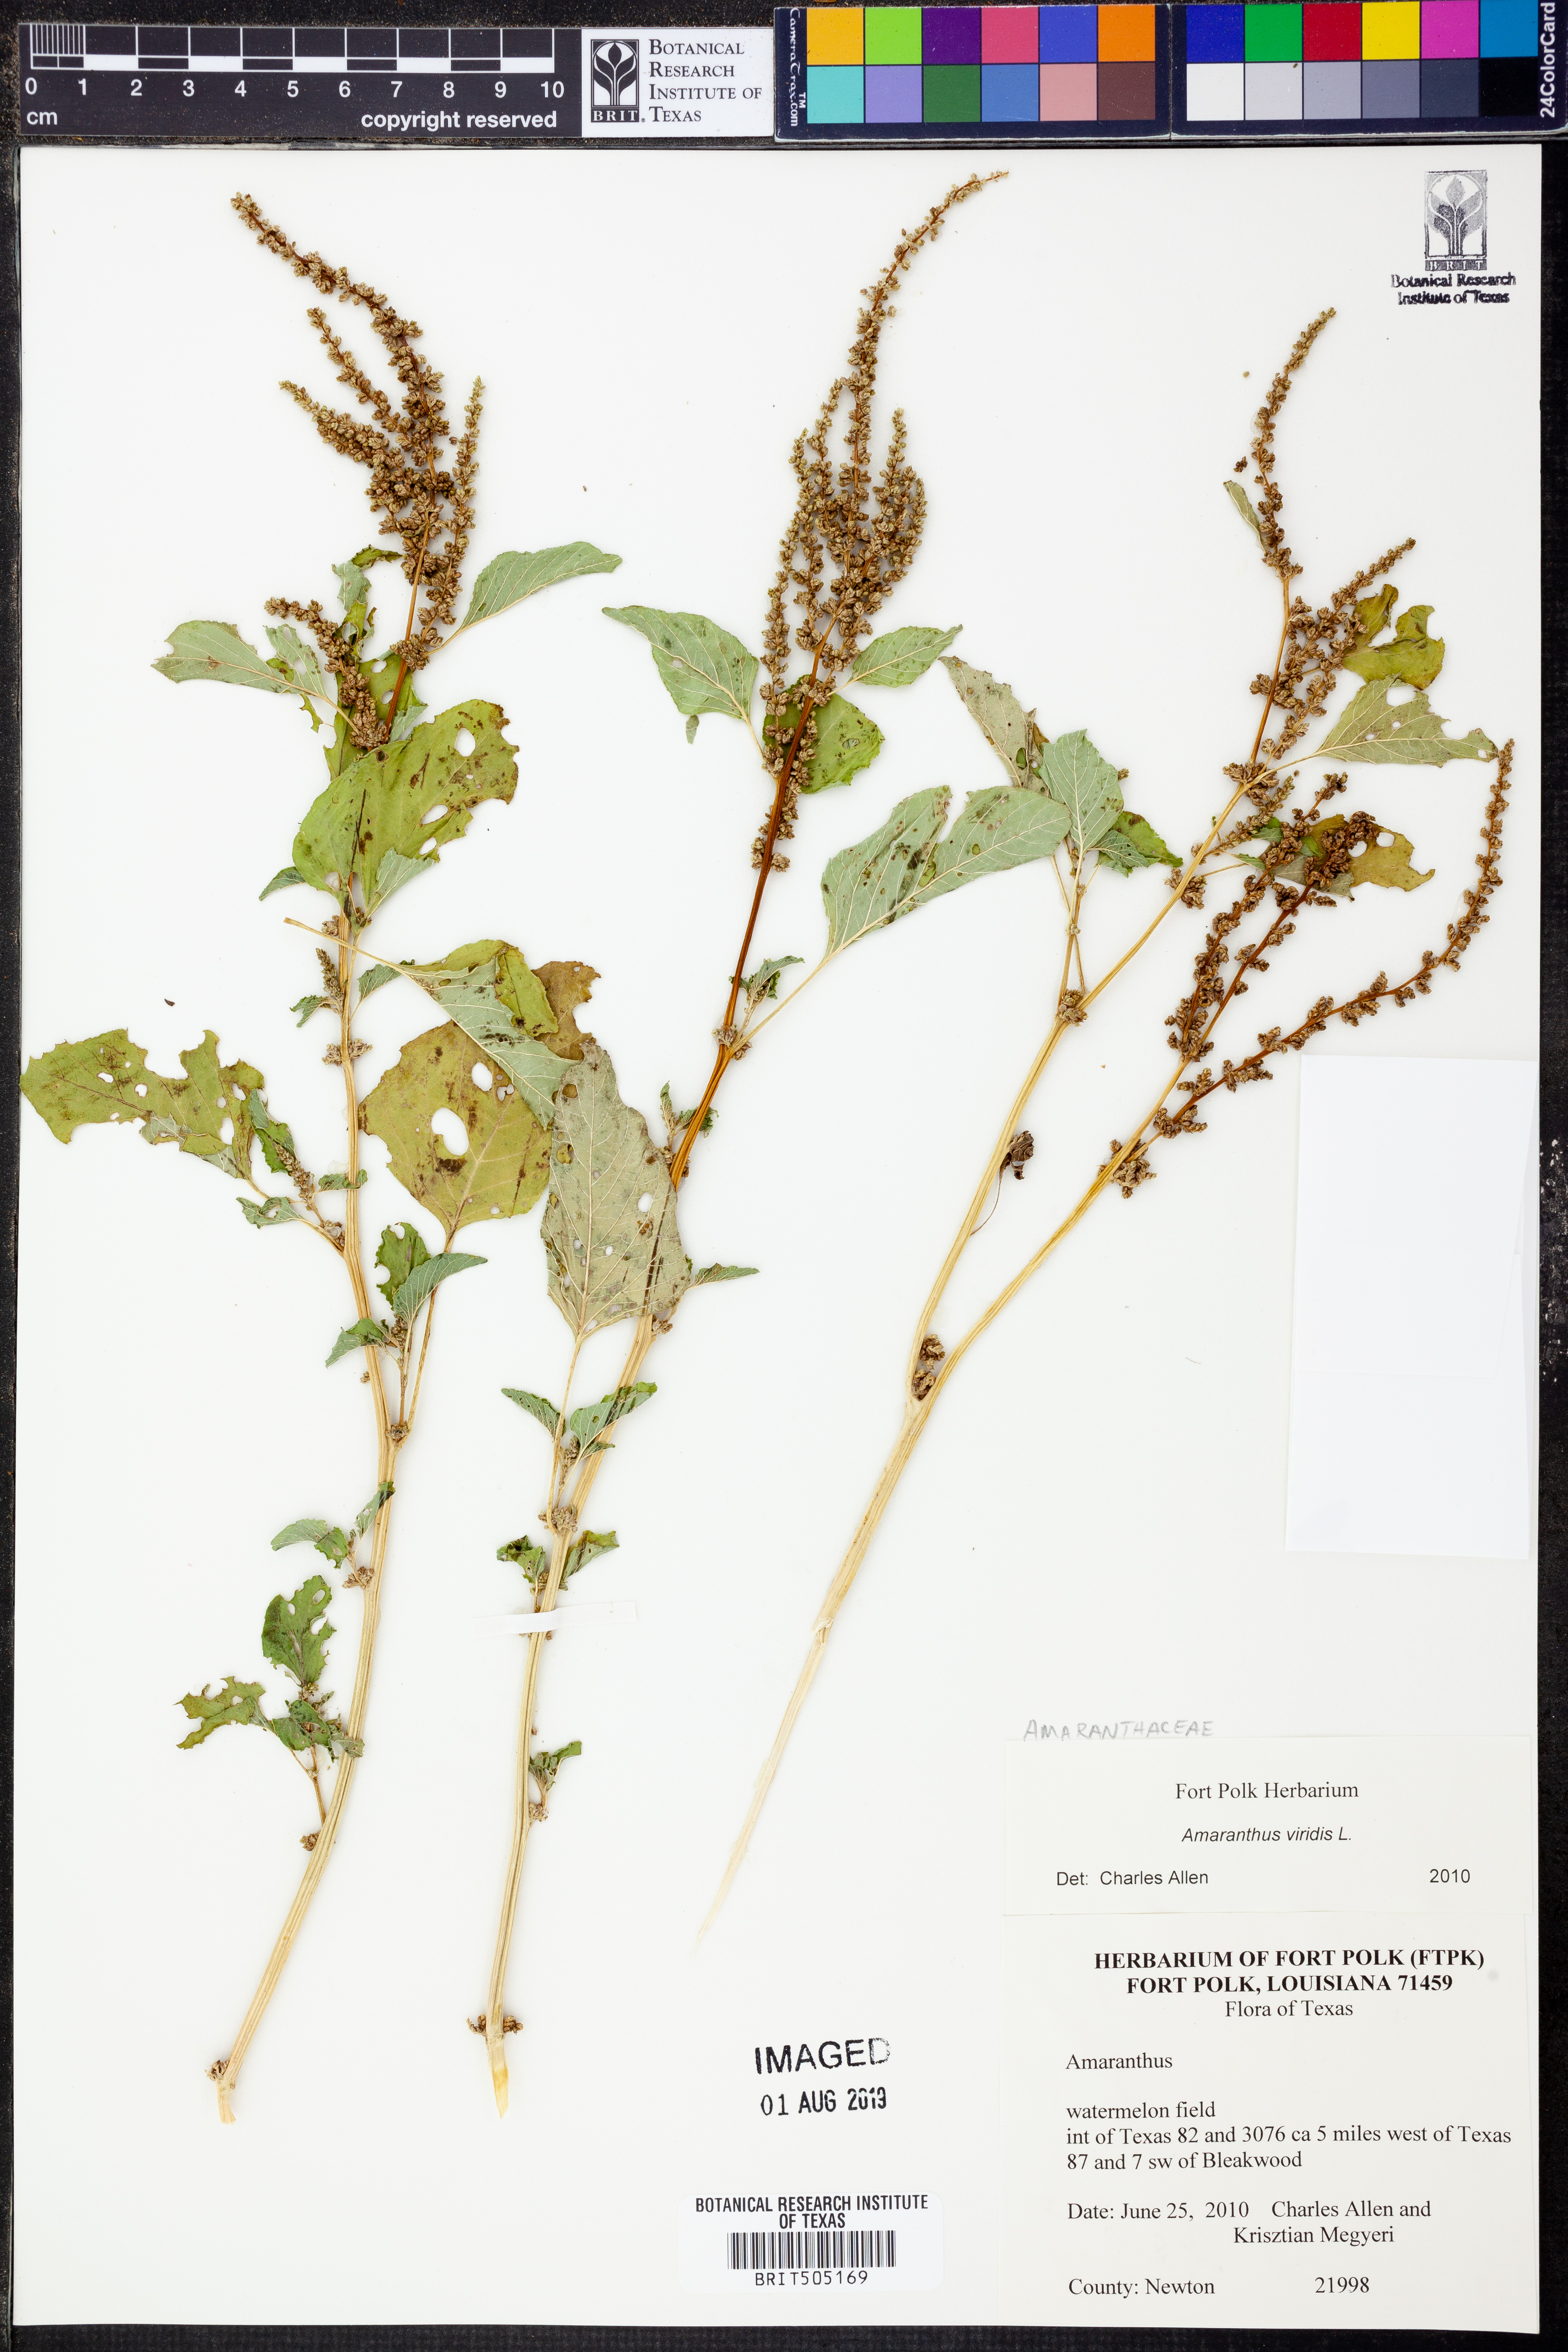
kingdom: Plantae
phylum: Tracheophyta
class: Magnoliopsida
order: Caryophyllales
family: Amaranthaceae
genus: Amaranthus
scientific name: Amaranthus viridis
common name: Slender amaranth
